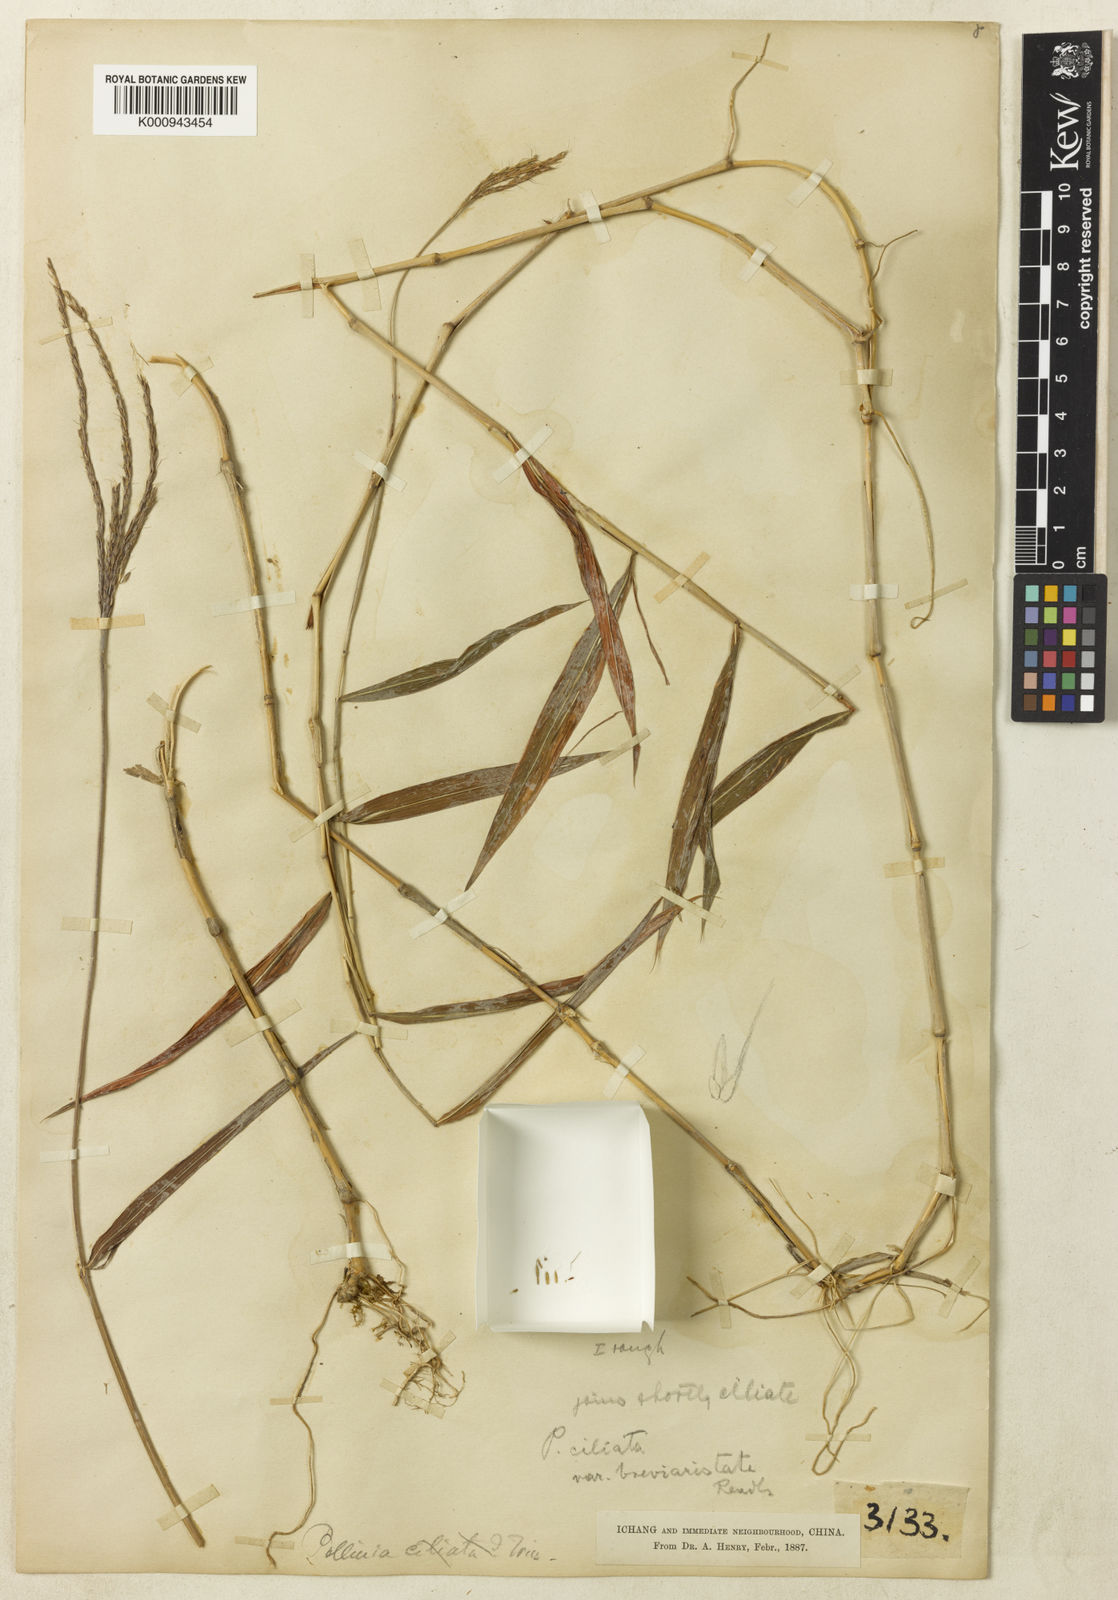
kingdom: Plantae
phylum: Tracheophyta
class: Liliopsida
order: Poales
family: Poaceae
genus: Microstegium
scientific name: Microstegium fasciculatum
